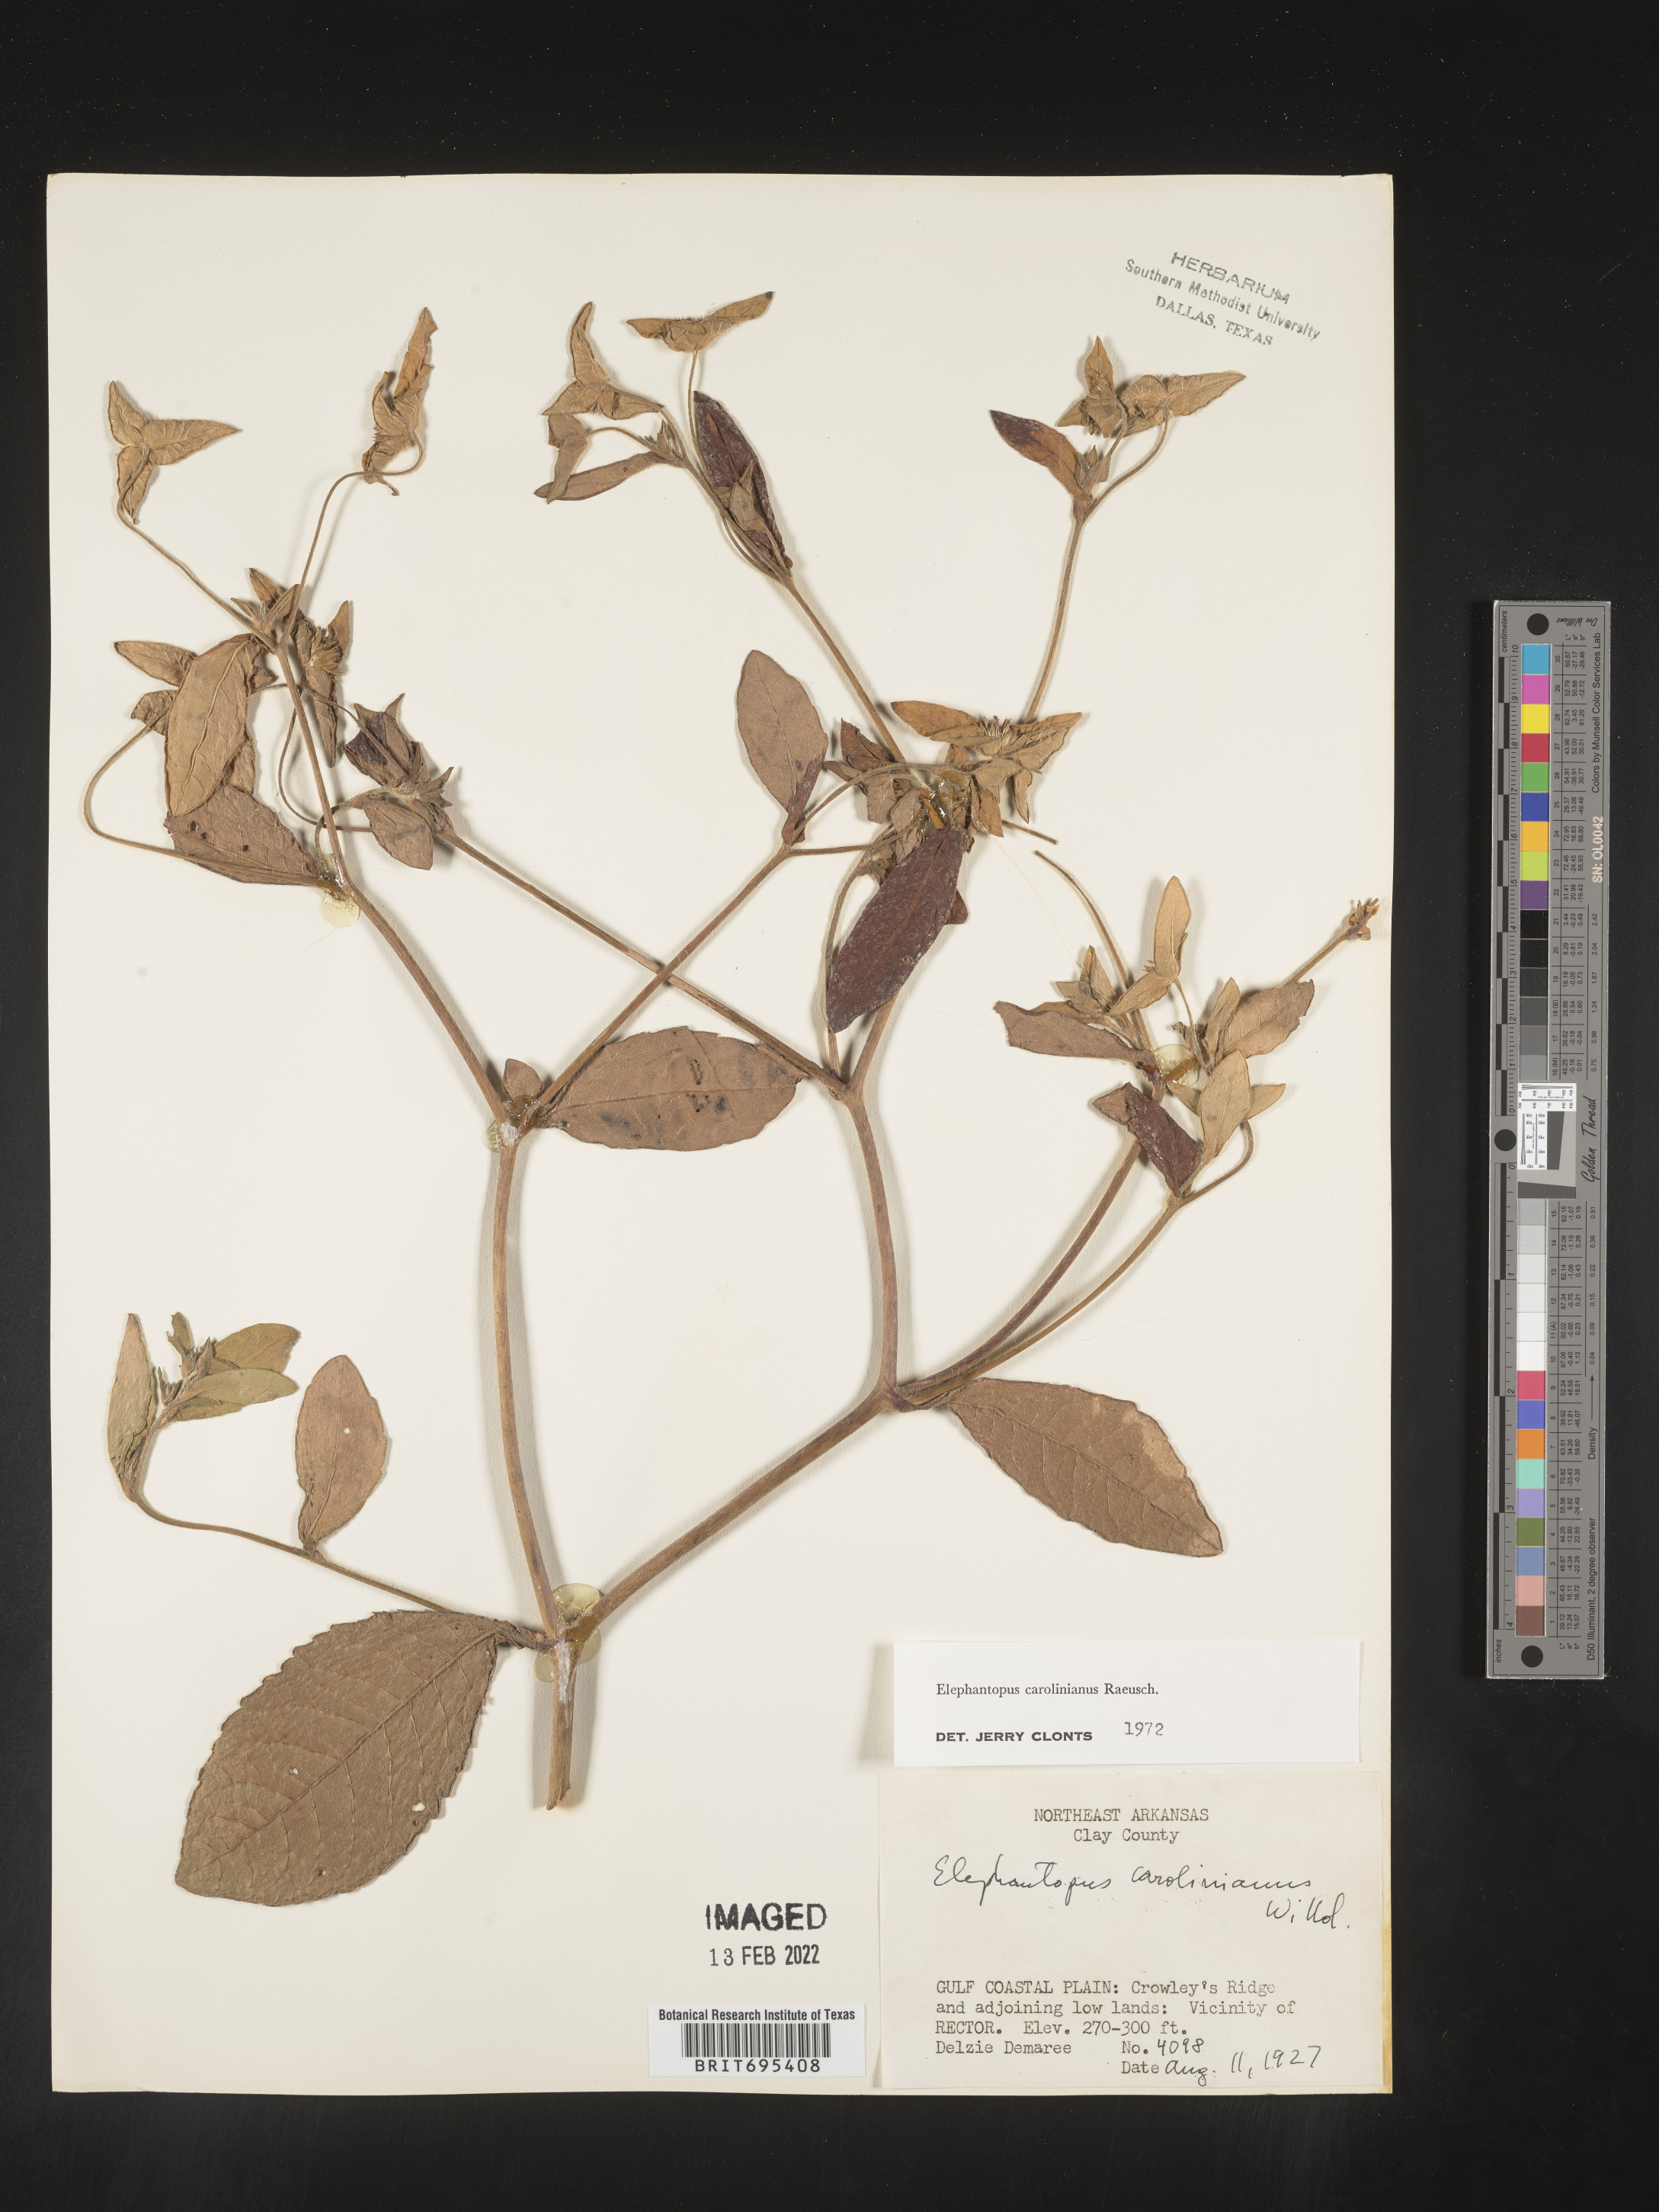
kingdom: Plantae
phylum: Tracheophyta
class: Magnoliopsida
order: Asterales
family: Asteraceae
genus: Elephantopus
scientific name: Elephantopus carolinianus
